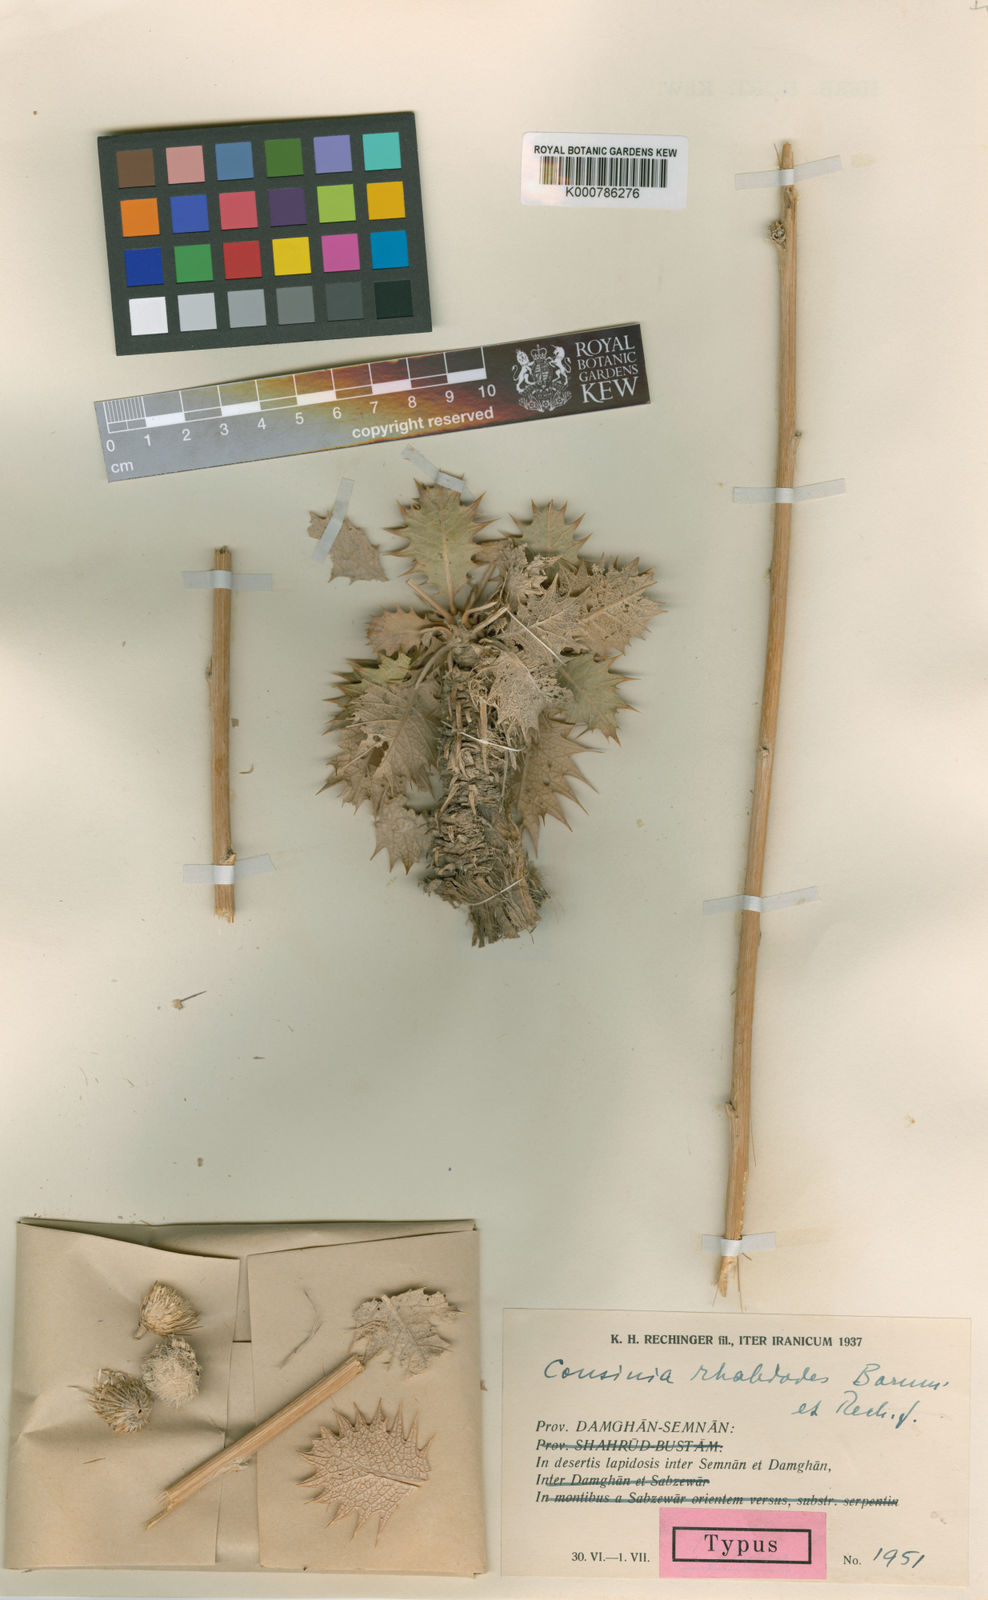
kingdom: Plantae
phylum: Tracheophyta
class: Magnoliopsida
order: Asterales
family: Asteraceae
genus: Cousinia
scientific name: Cousinia rhabdodes
